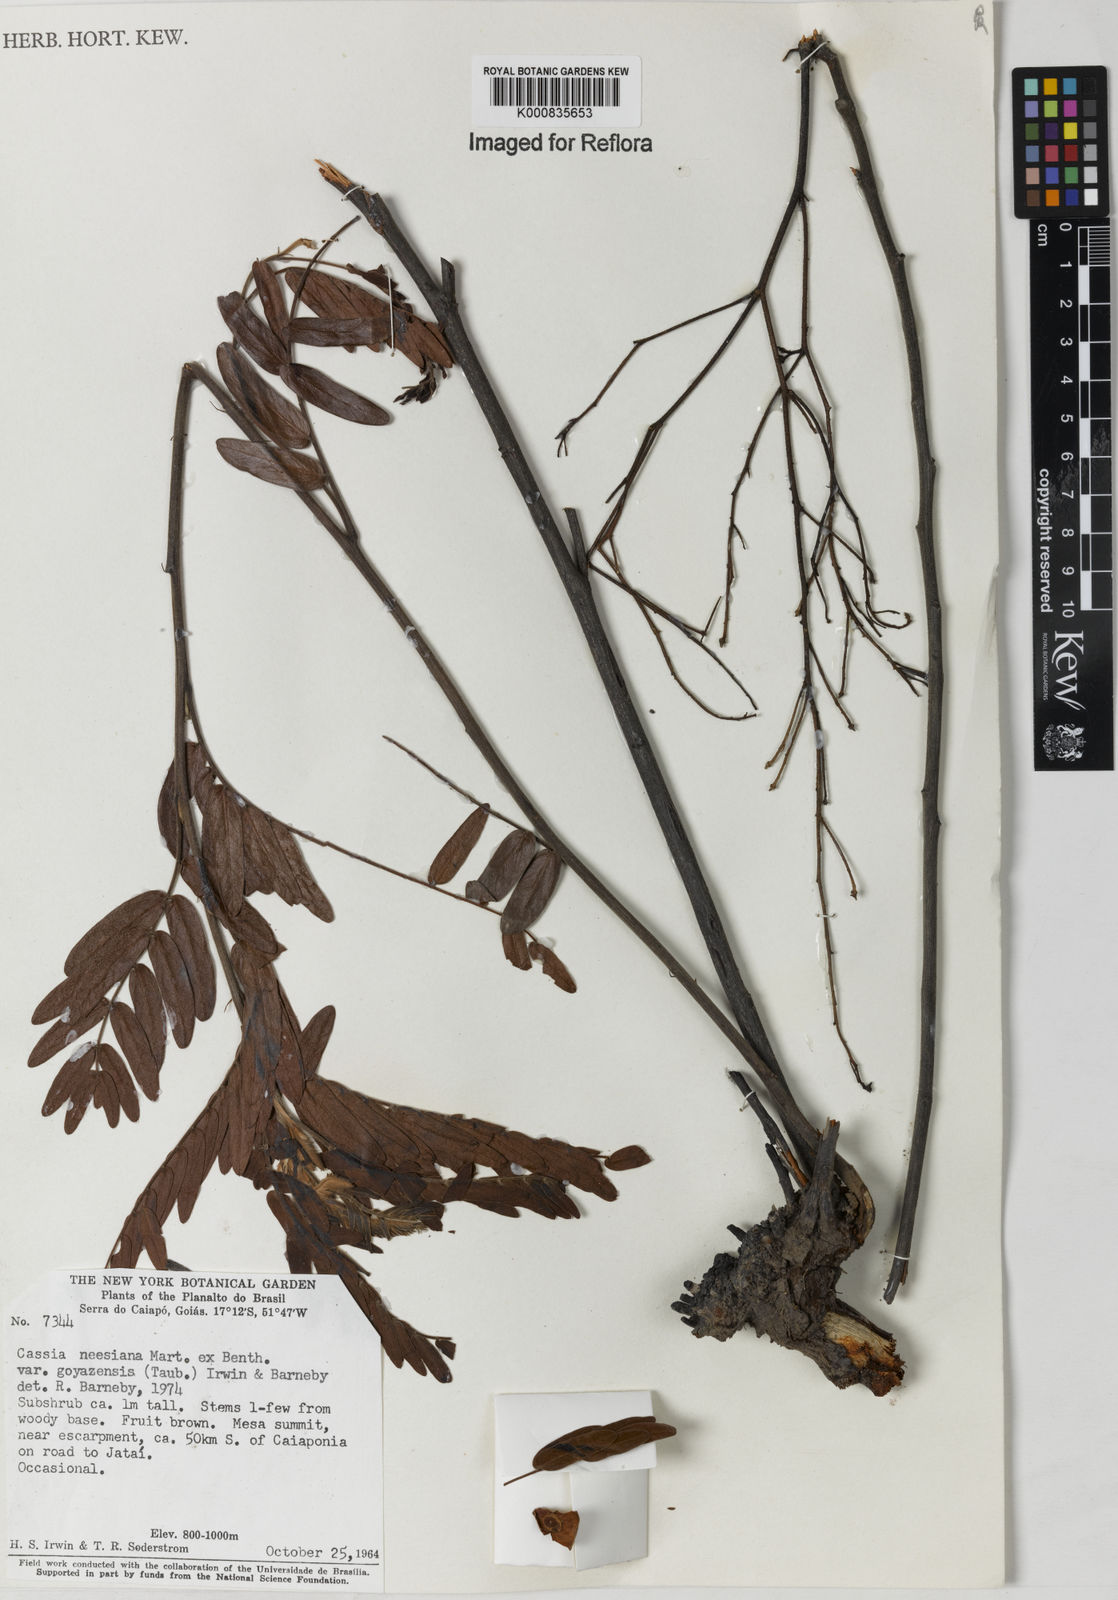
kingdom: Plantae
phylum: Tracheophyta
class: Magnoliopsida
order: Fabales
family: Fabaceae
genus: Chamaecrista
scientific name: Chamaecrista neesiana
